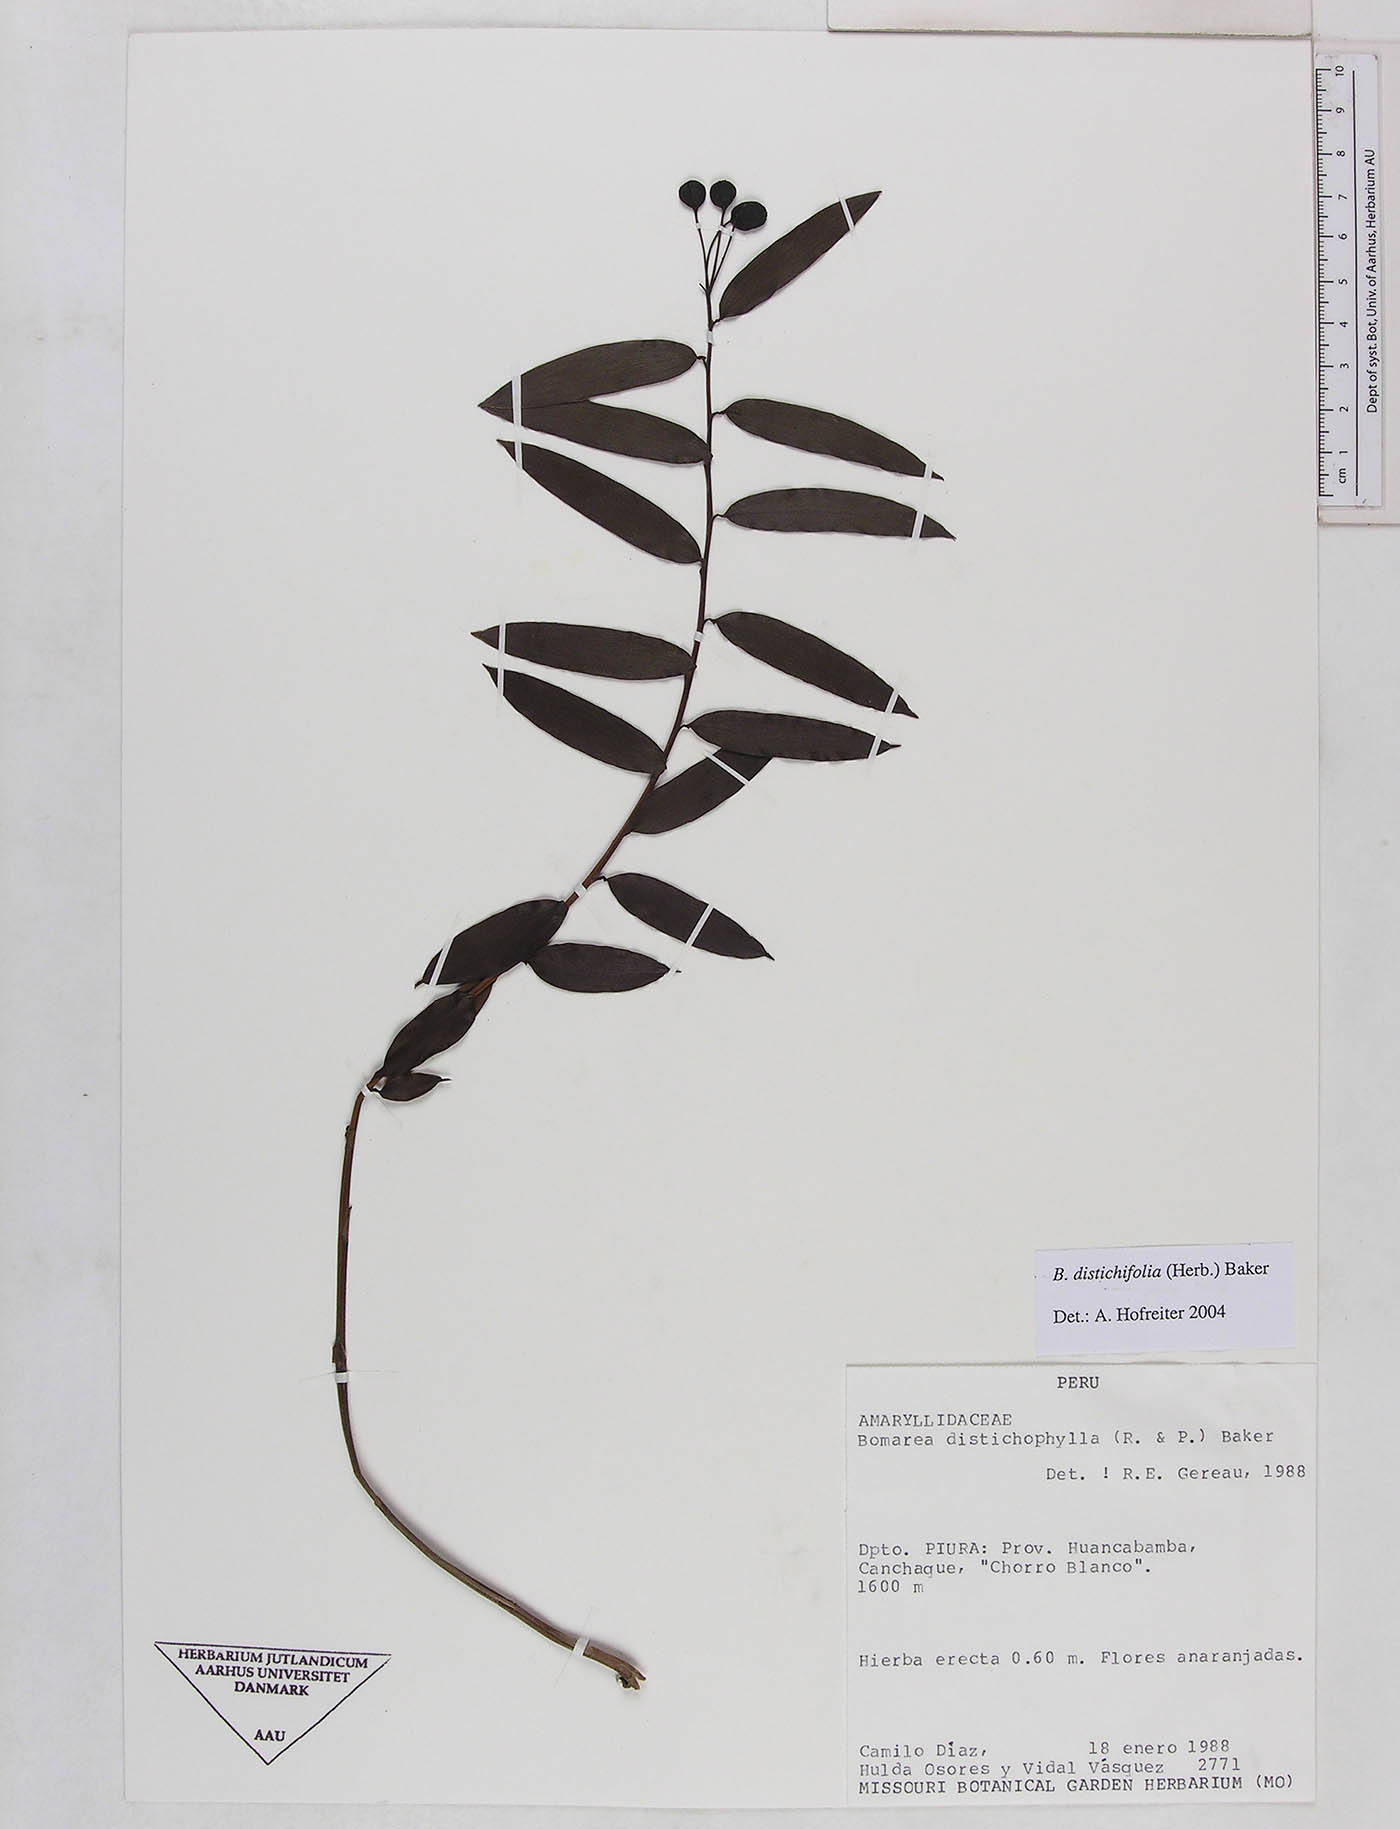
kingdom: Plantae
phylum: Tracheophyta
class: Liliopsida
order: Liliales
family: Alstroemeriaceae
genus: Bomarea
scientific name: Bomarea distichifolia
